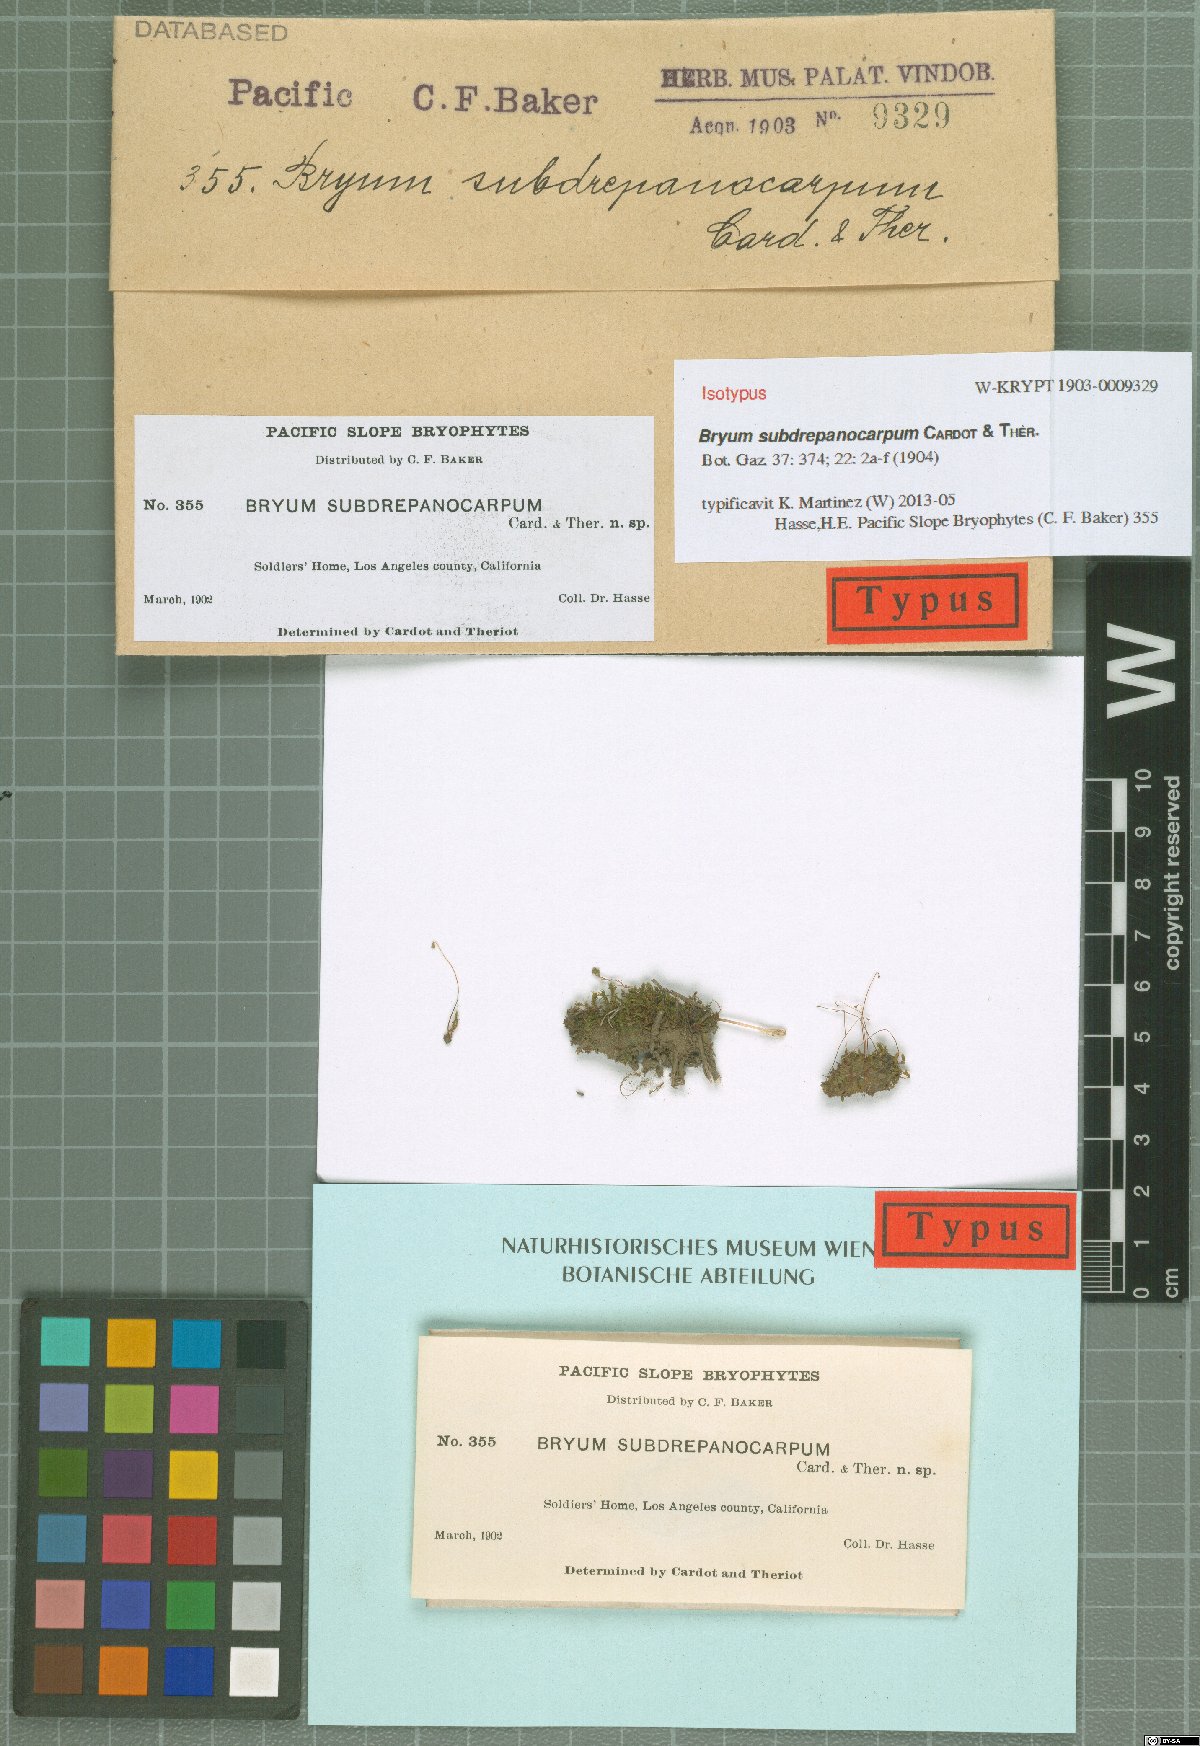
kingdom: Plantae
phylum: Bryophyta
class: Bryopsida
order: Bryales
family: Bryaceae
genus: Rosulabryum
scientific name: Rosulabryum donianum
